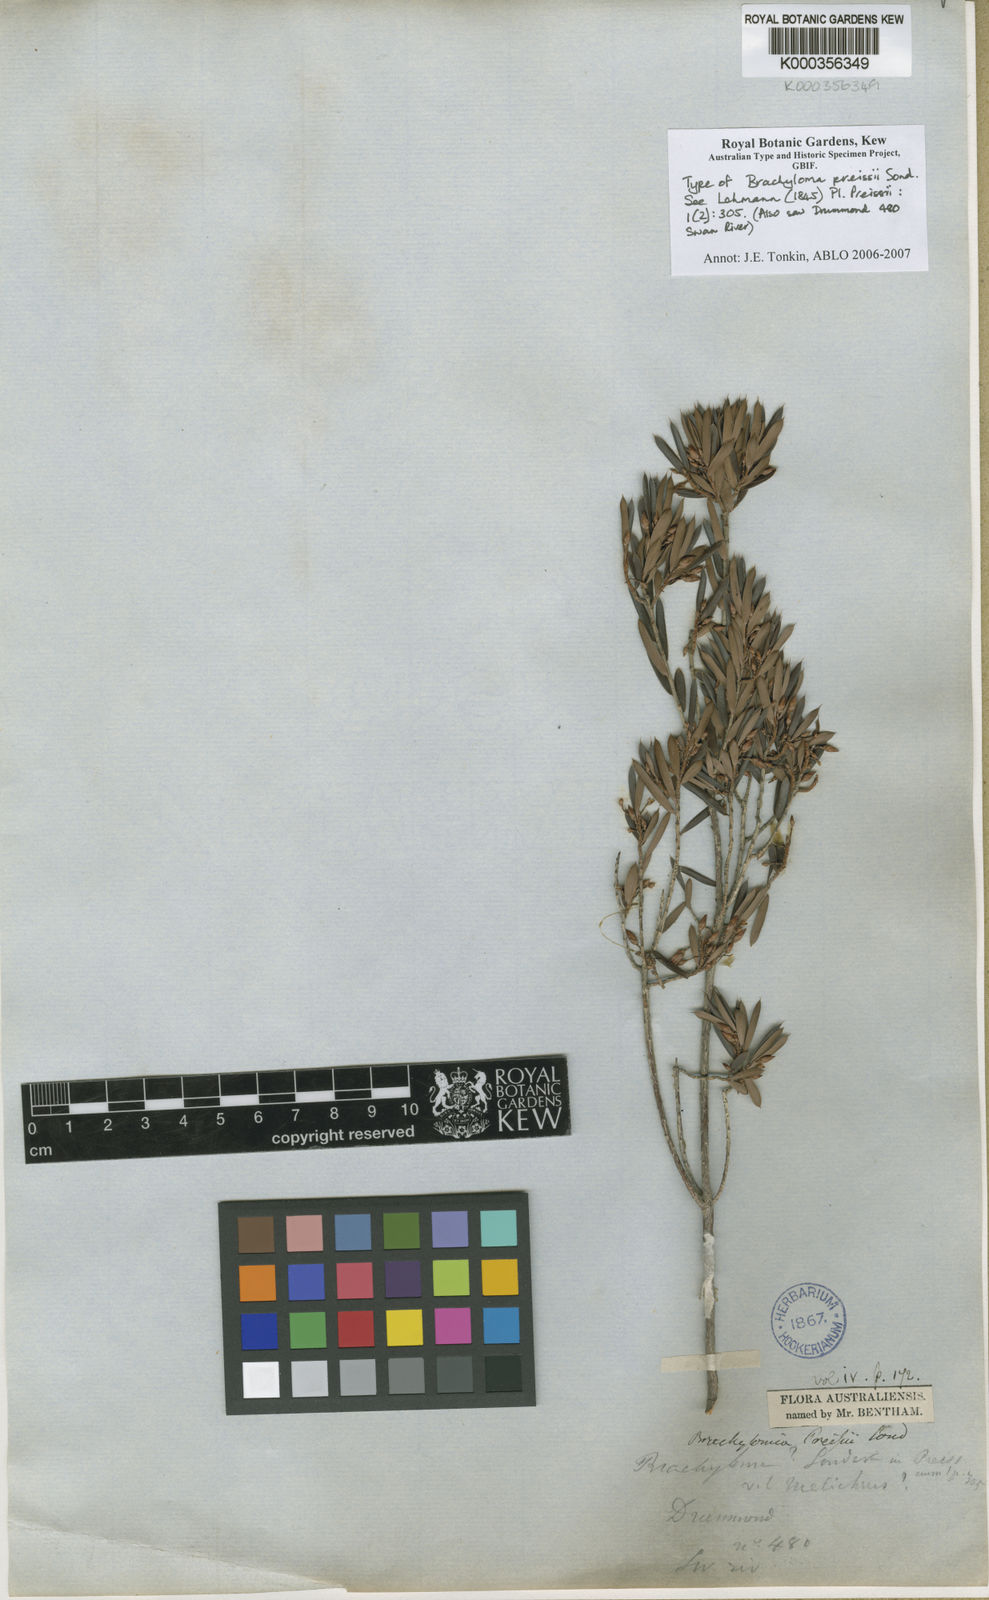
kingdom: Plantae
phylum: Tracheophyta
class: Magnoliopsida
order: Ericales
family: Ericaceae
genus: Brachyloma
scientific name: Brachyloma preissii
